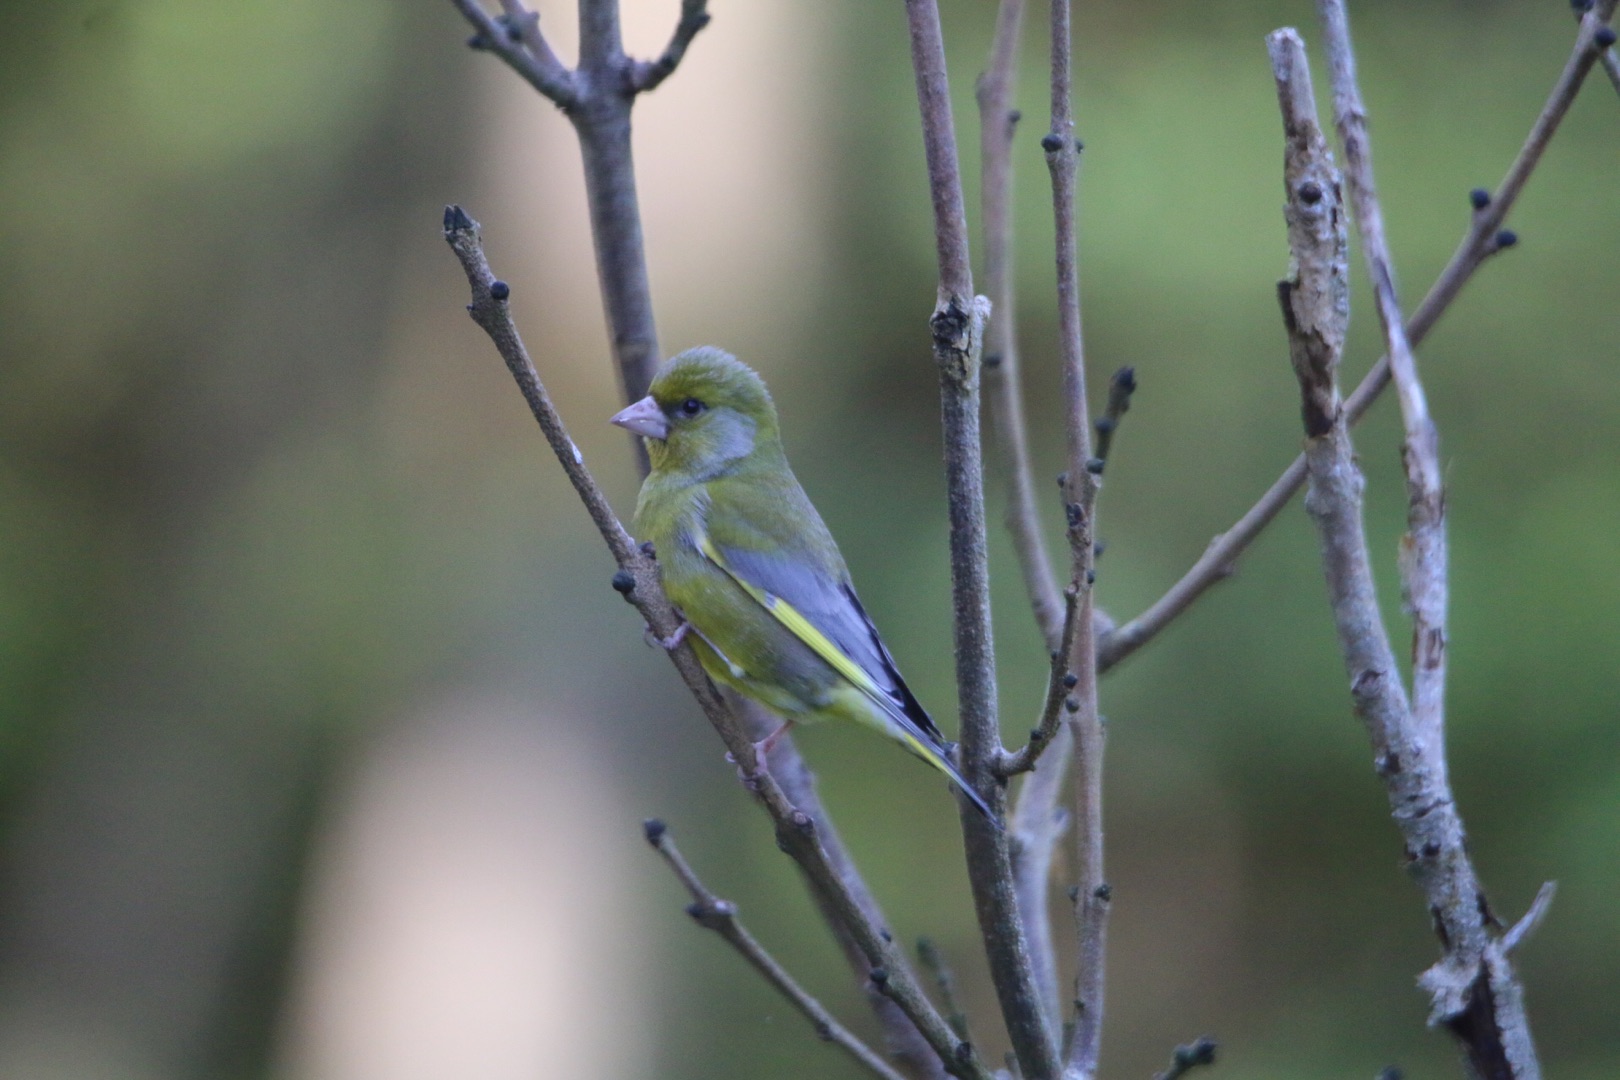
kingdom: Plantae
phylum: Tracheophyta
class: Liliopsida
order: Poales
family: Poaceae
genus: Chloris
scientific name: Chloris chloris
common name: Grønirisk
